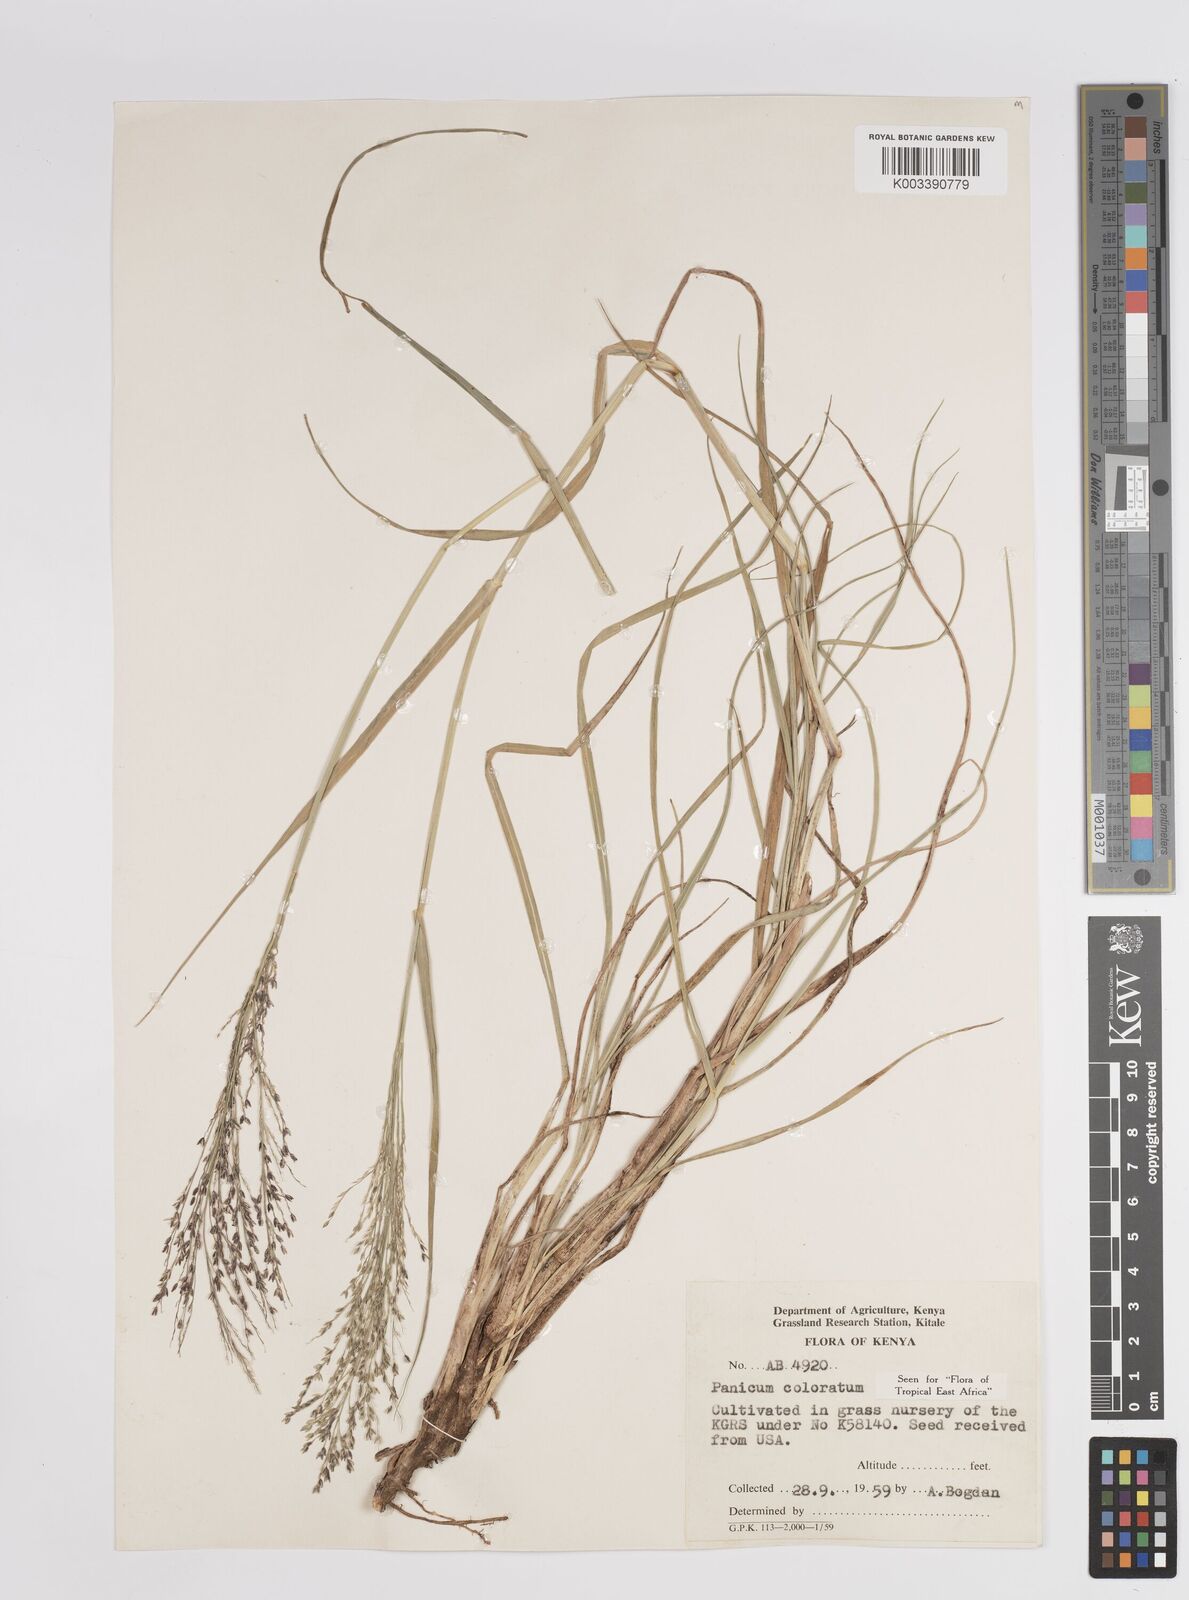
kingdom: Plantae
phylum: Tracheophyta
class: Liliopsida
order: Poales
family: Poaceae
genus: Panicum
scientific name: Panicum coloratum
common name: Kleingrass
